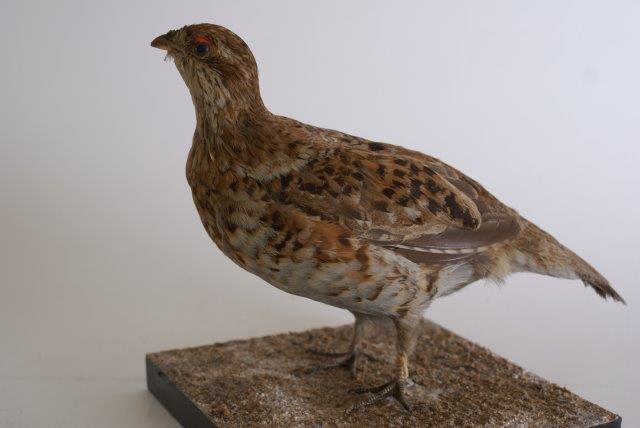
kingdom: Animalia
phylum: Chordata
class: Aves
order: Galliformes
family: Phasianidae
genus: Tetrastes
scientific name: Tetrastes bonasia
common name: Hazelhoen
